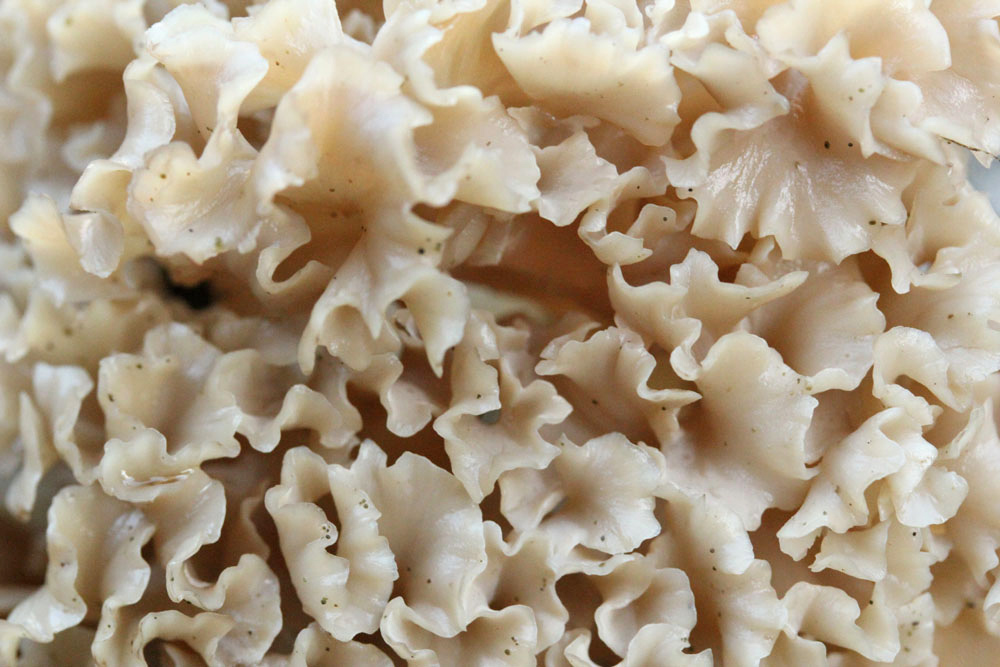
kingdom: Fungi
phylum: Basidiomycota
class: Agaricomycetes
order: Polyporales
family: Sparassidaceae
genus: Sparassis
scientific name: Sparassis crispa
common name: kruset blomkålssvamp
